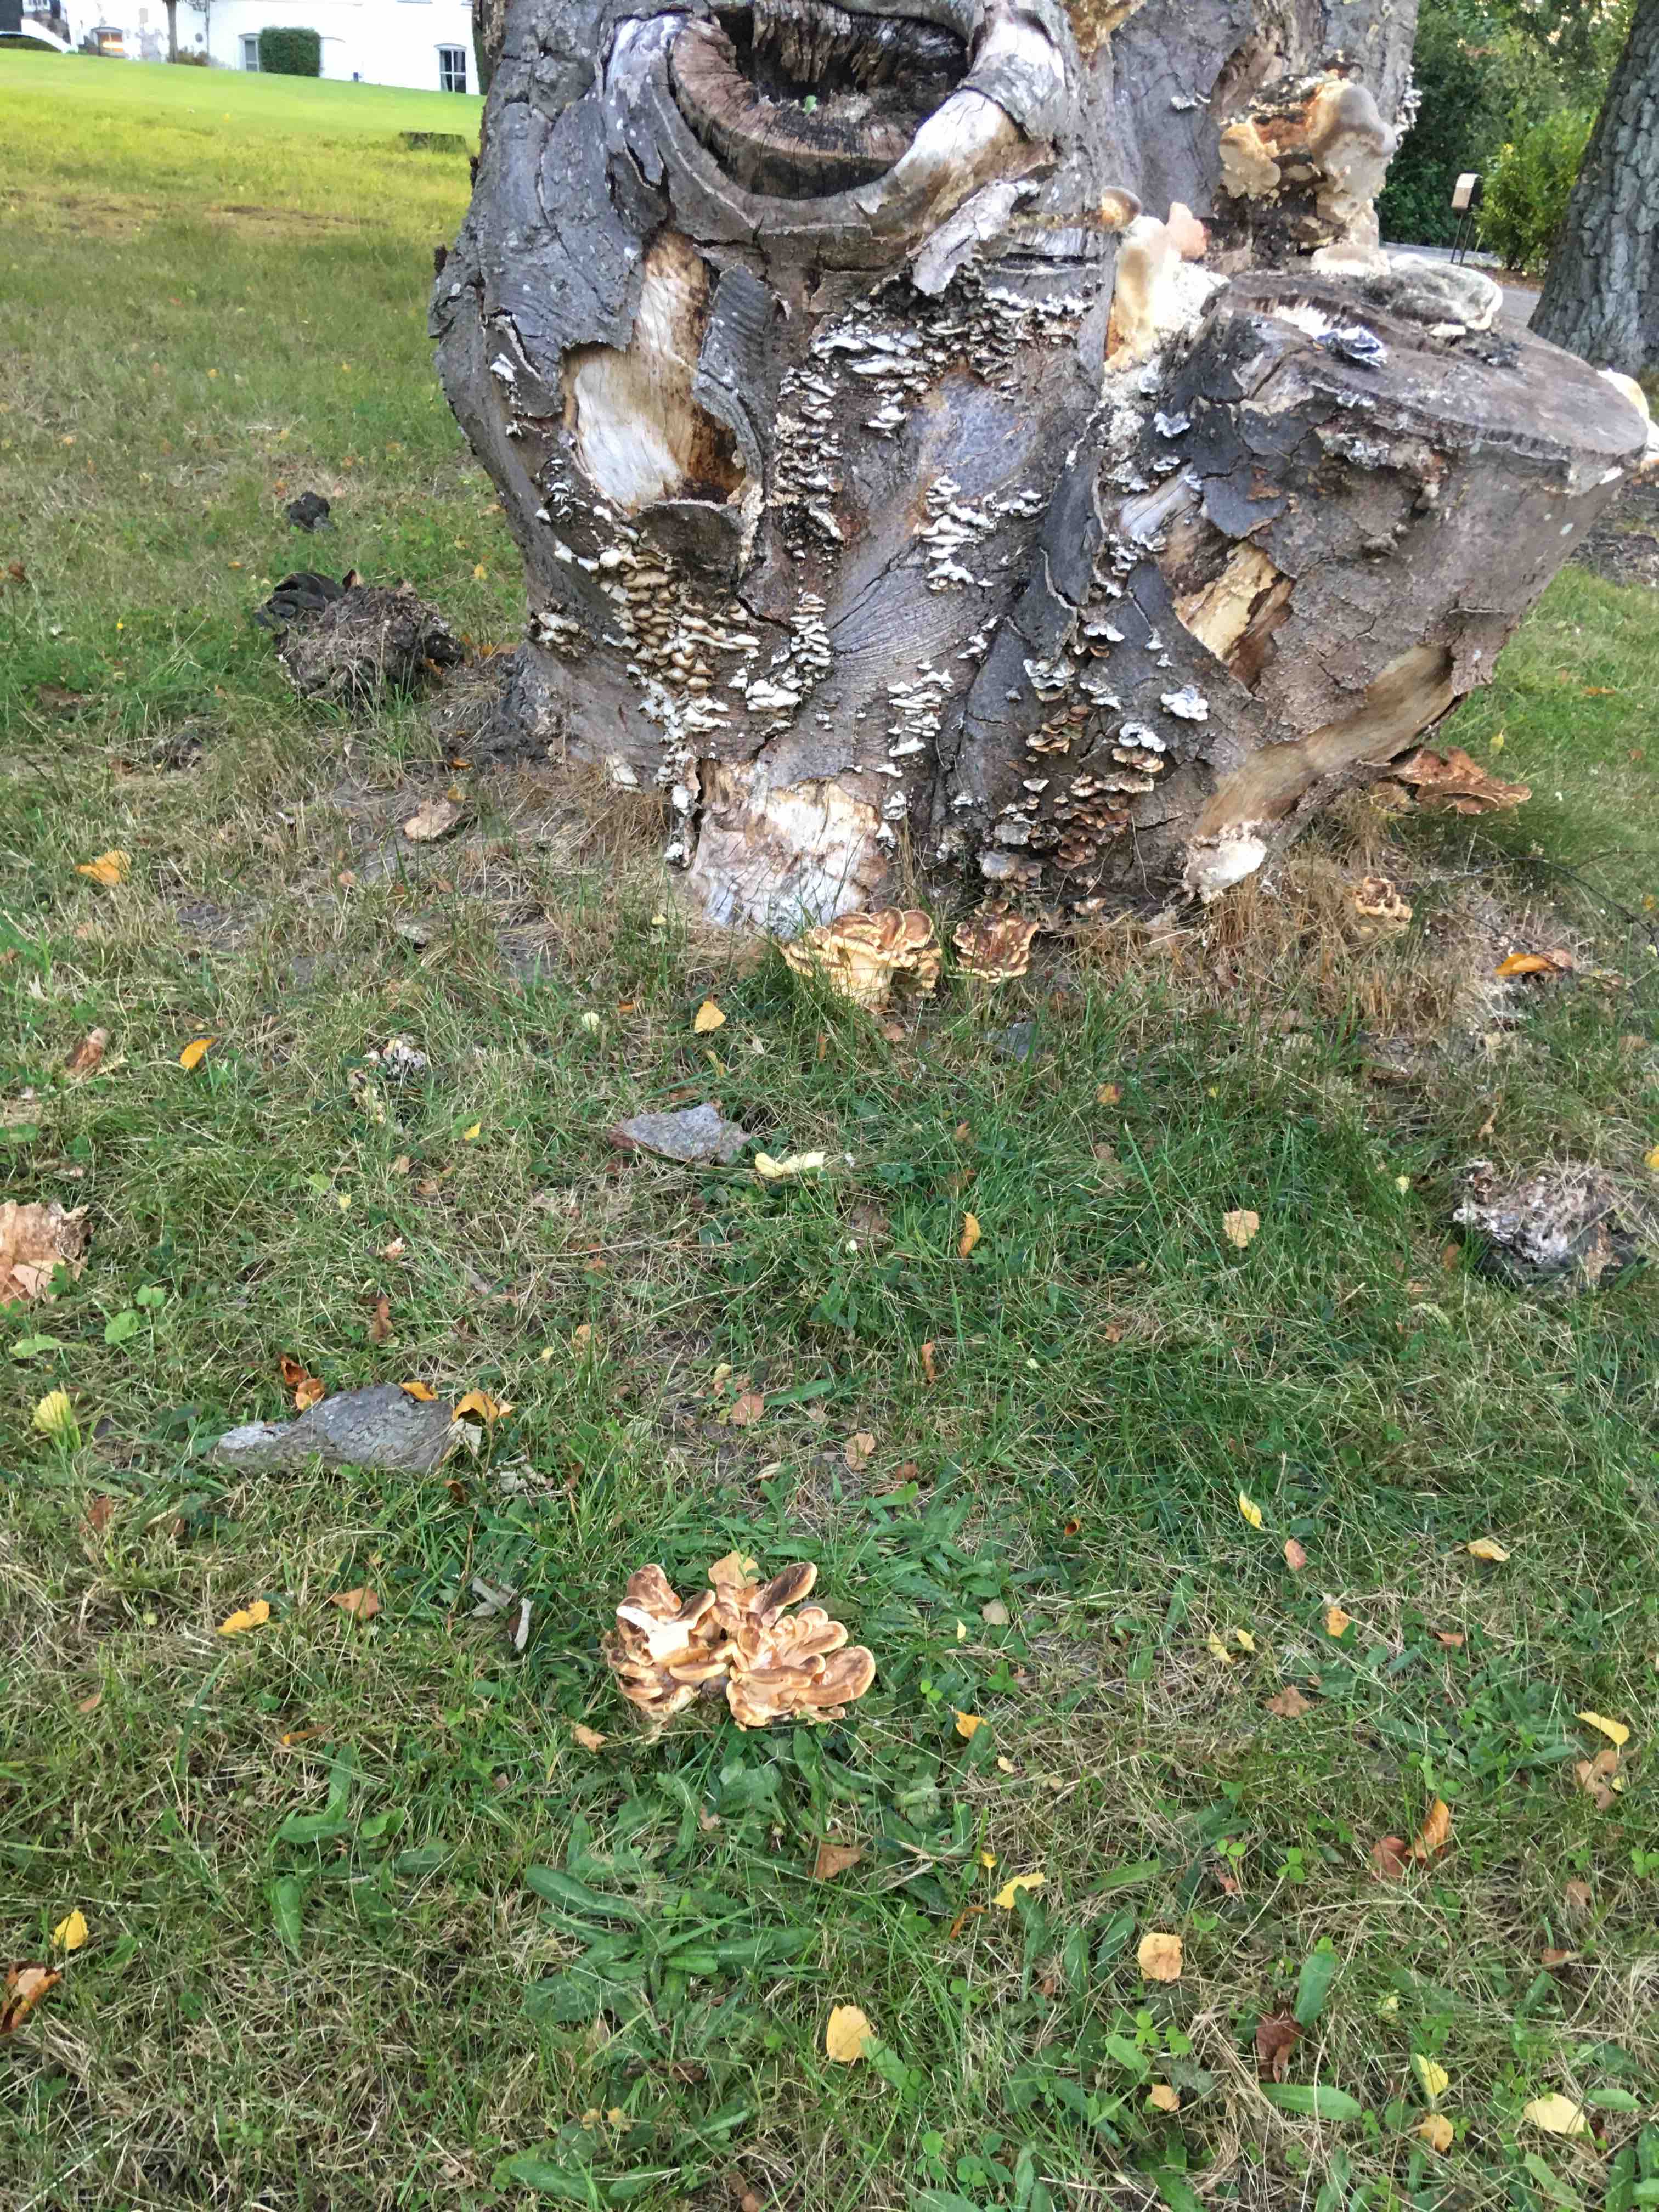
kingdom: Fungi
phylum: Basidiomycota
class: Agaricomycetes
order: Polyporales
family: Meripilaceae
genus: Meripilus
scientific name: Meripilus giganteus
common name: kæmpeporesvamp
